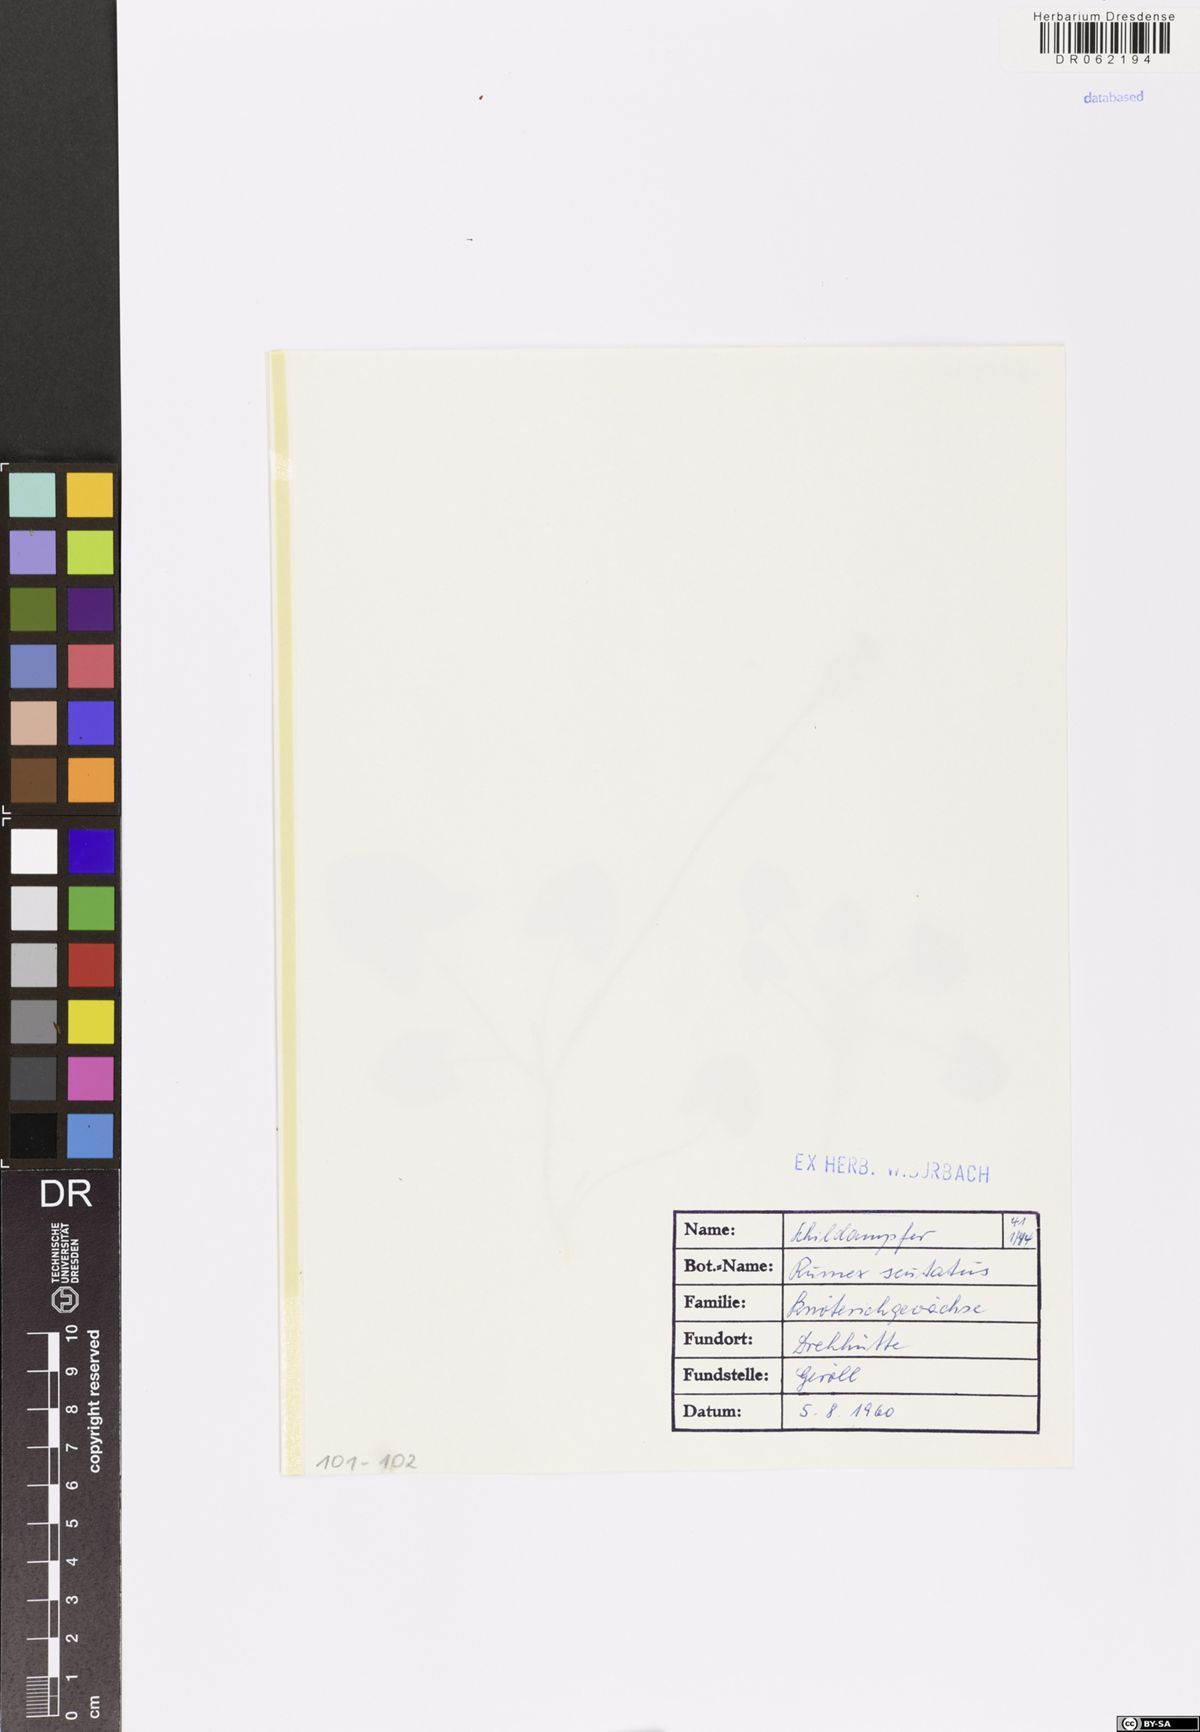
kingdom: Plantae
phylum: Tracheophyta
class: Magnoliopsida
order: Caryophyllales
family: Polygonaceae
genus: Rumex
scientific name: Rumex scutatus
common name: French sorrel
